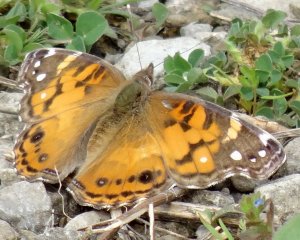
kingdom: Animalia
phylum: Arthropoda
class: Insecta
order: Lepidoptera
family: Nymphalidae
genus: Vanessa
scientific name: Vanessa virginiensis
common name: American Lady
